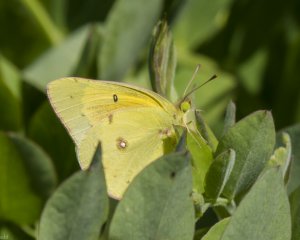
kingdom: Animalia
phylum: Arthropoda
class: Insecta
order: Lepidoptera
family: Pieridae
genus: Colias
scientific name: Colias eurytheme
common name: Orange Sulphur
